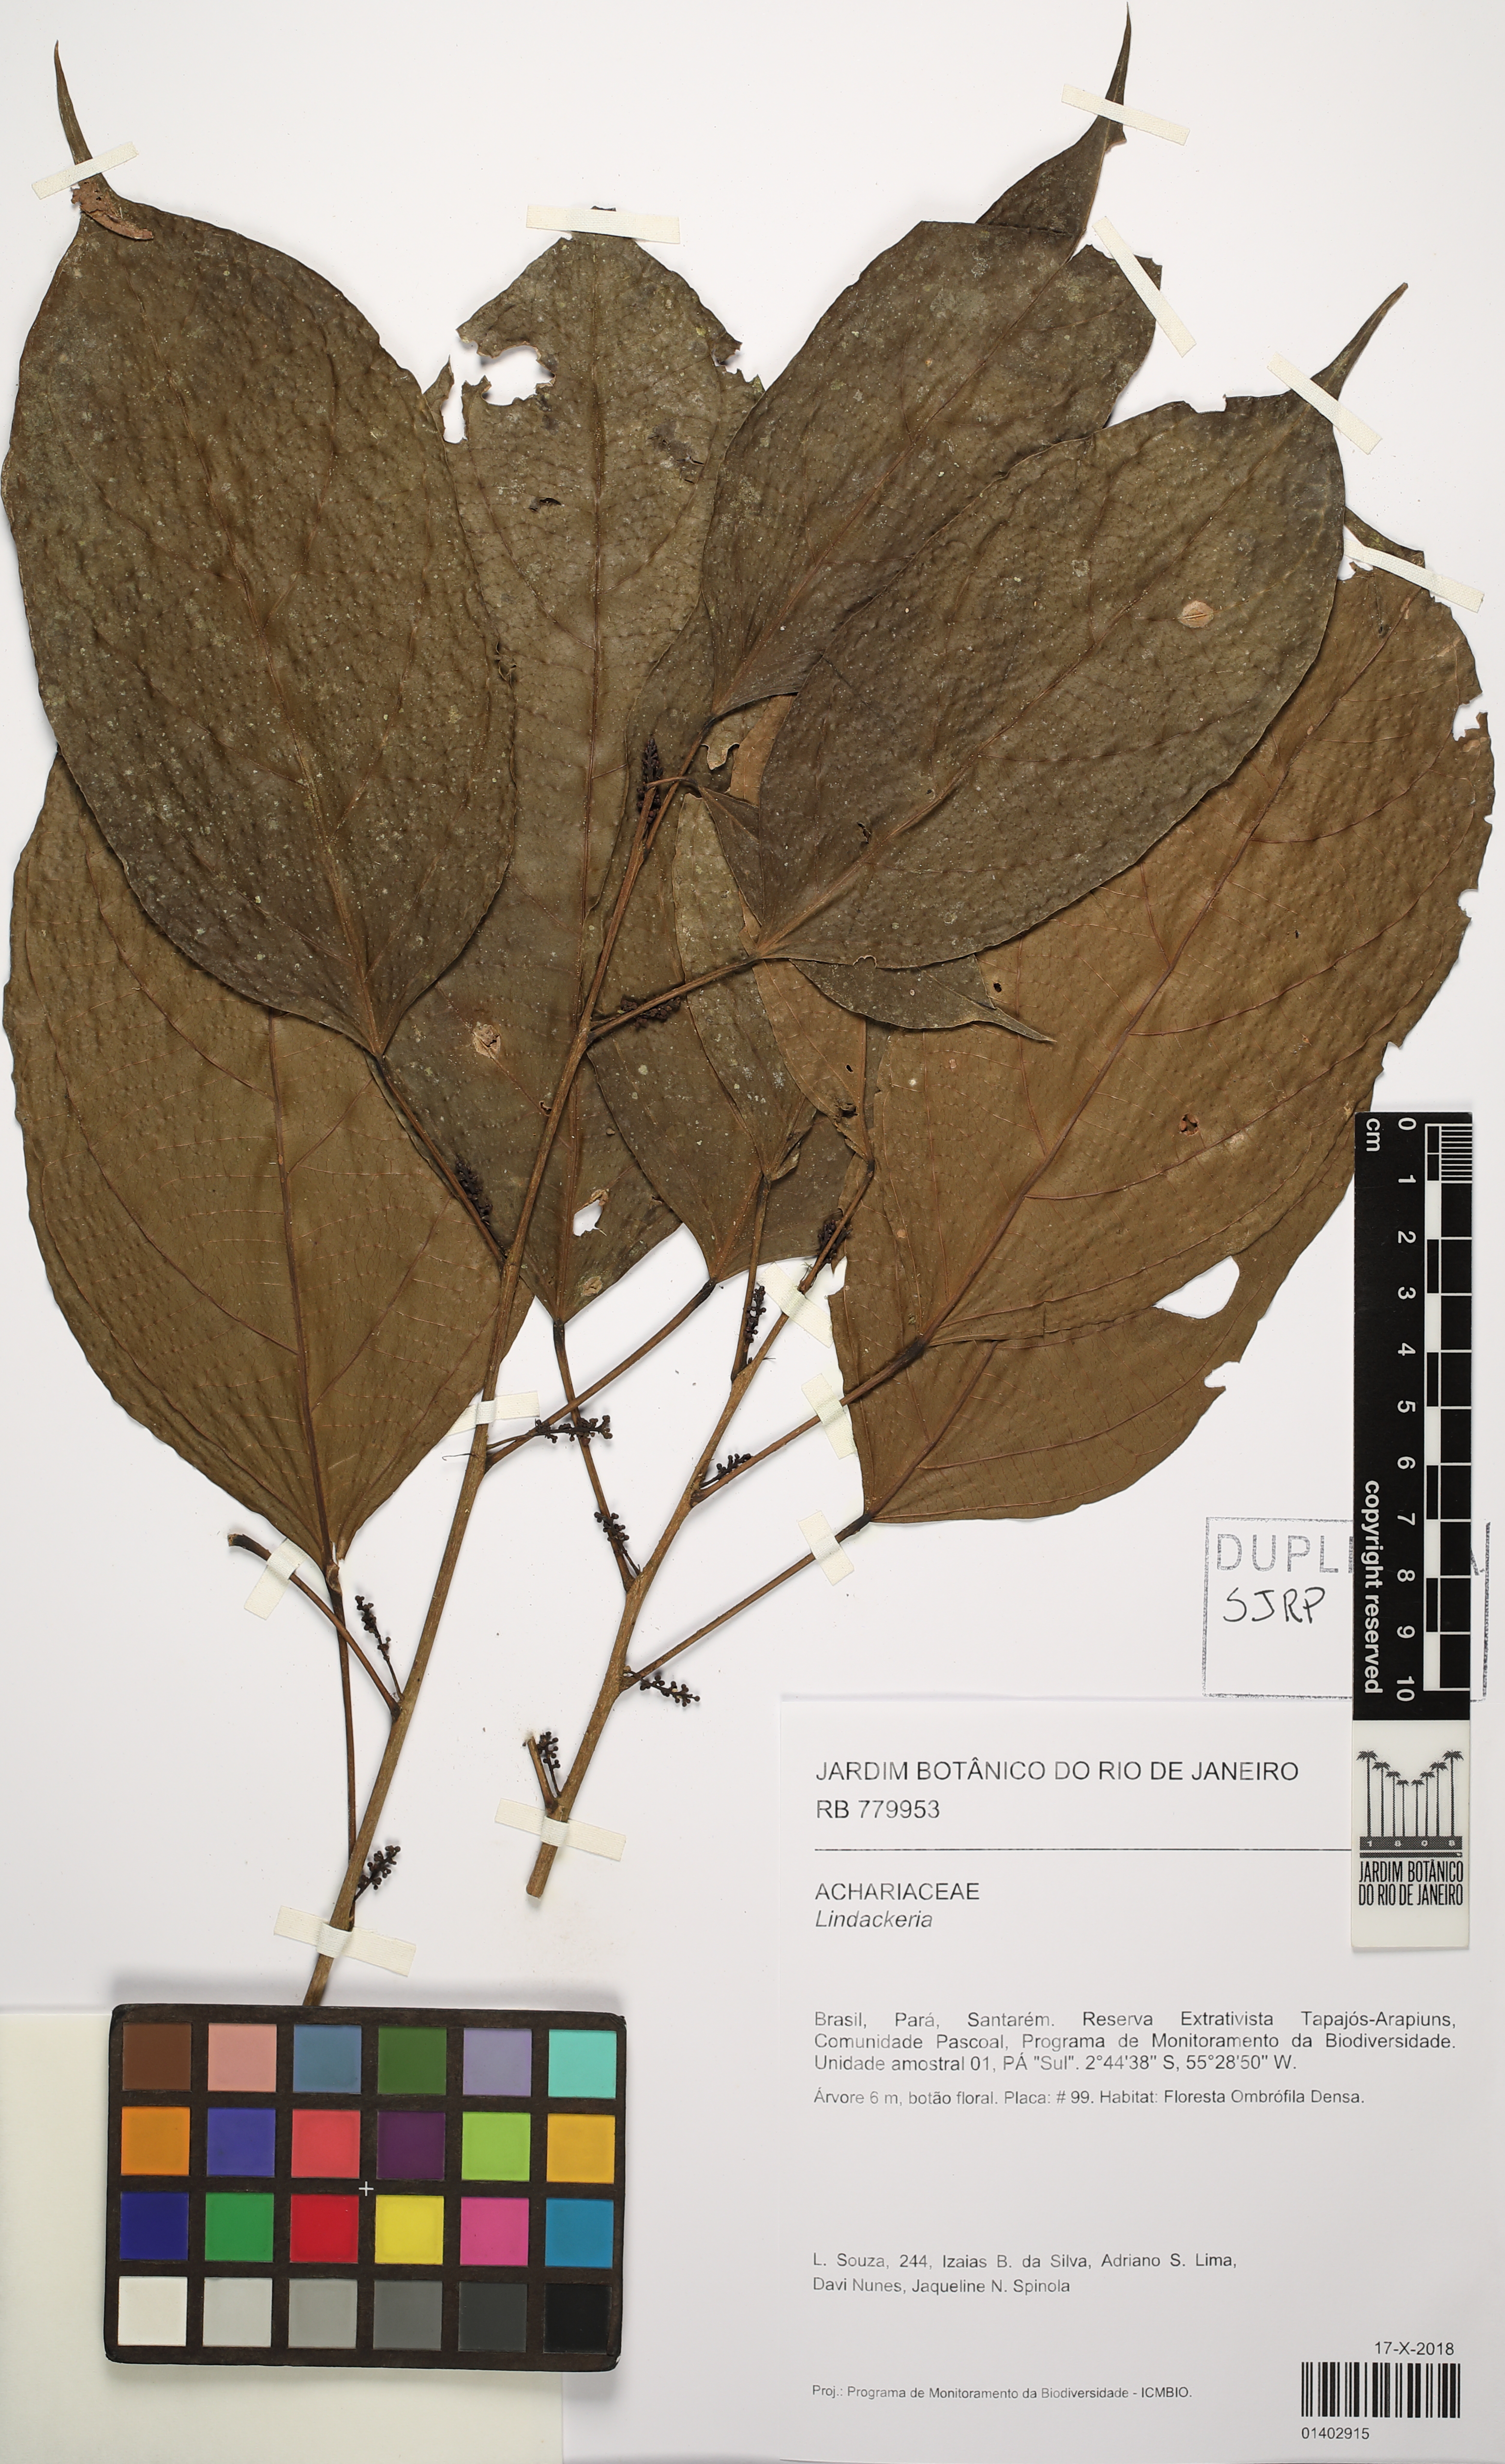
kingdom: Plantae
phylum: Tracheophyta
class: Magnoliopsida
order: Malpighiales
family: Achariaceae
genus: Lindackeria
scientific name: Lindackeria
